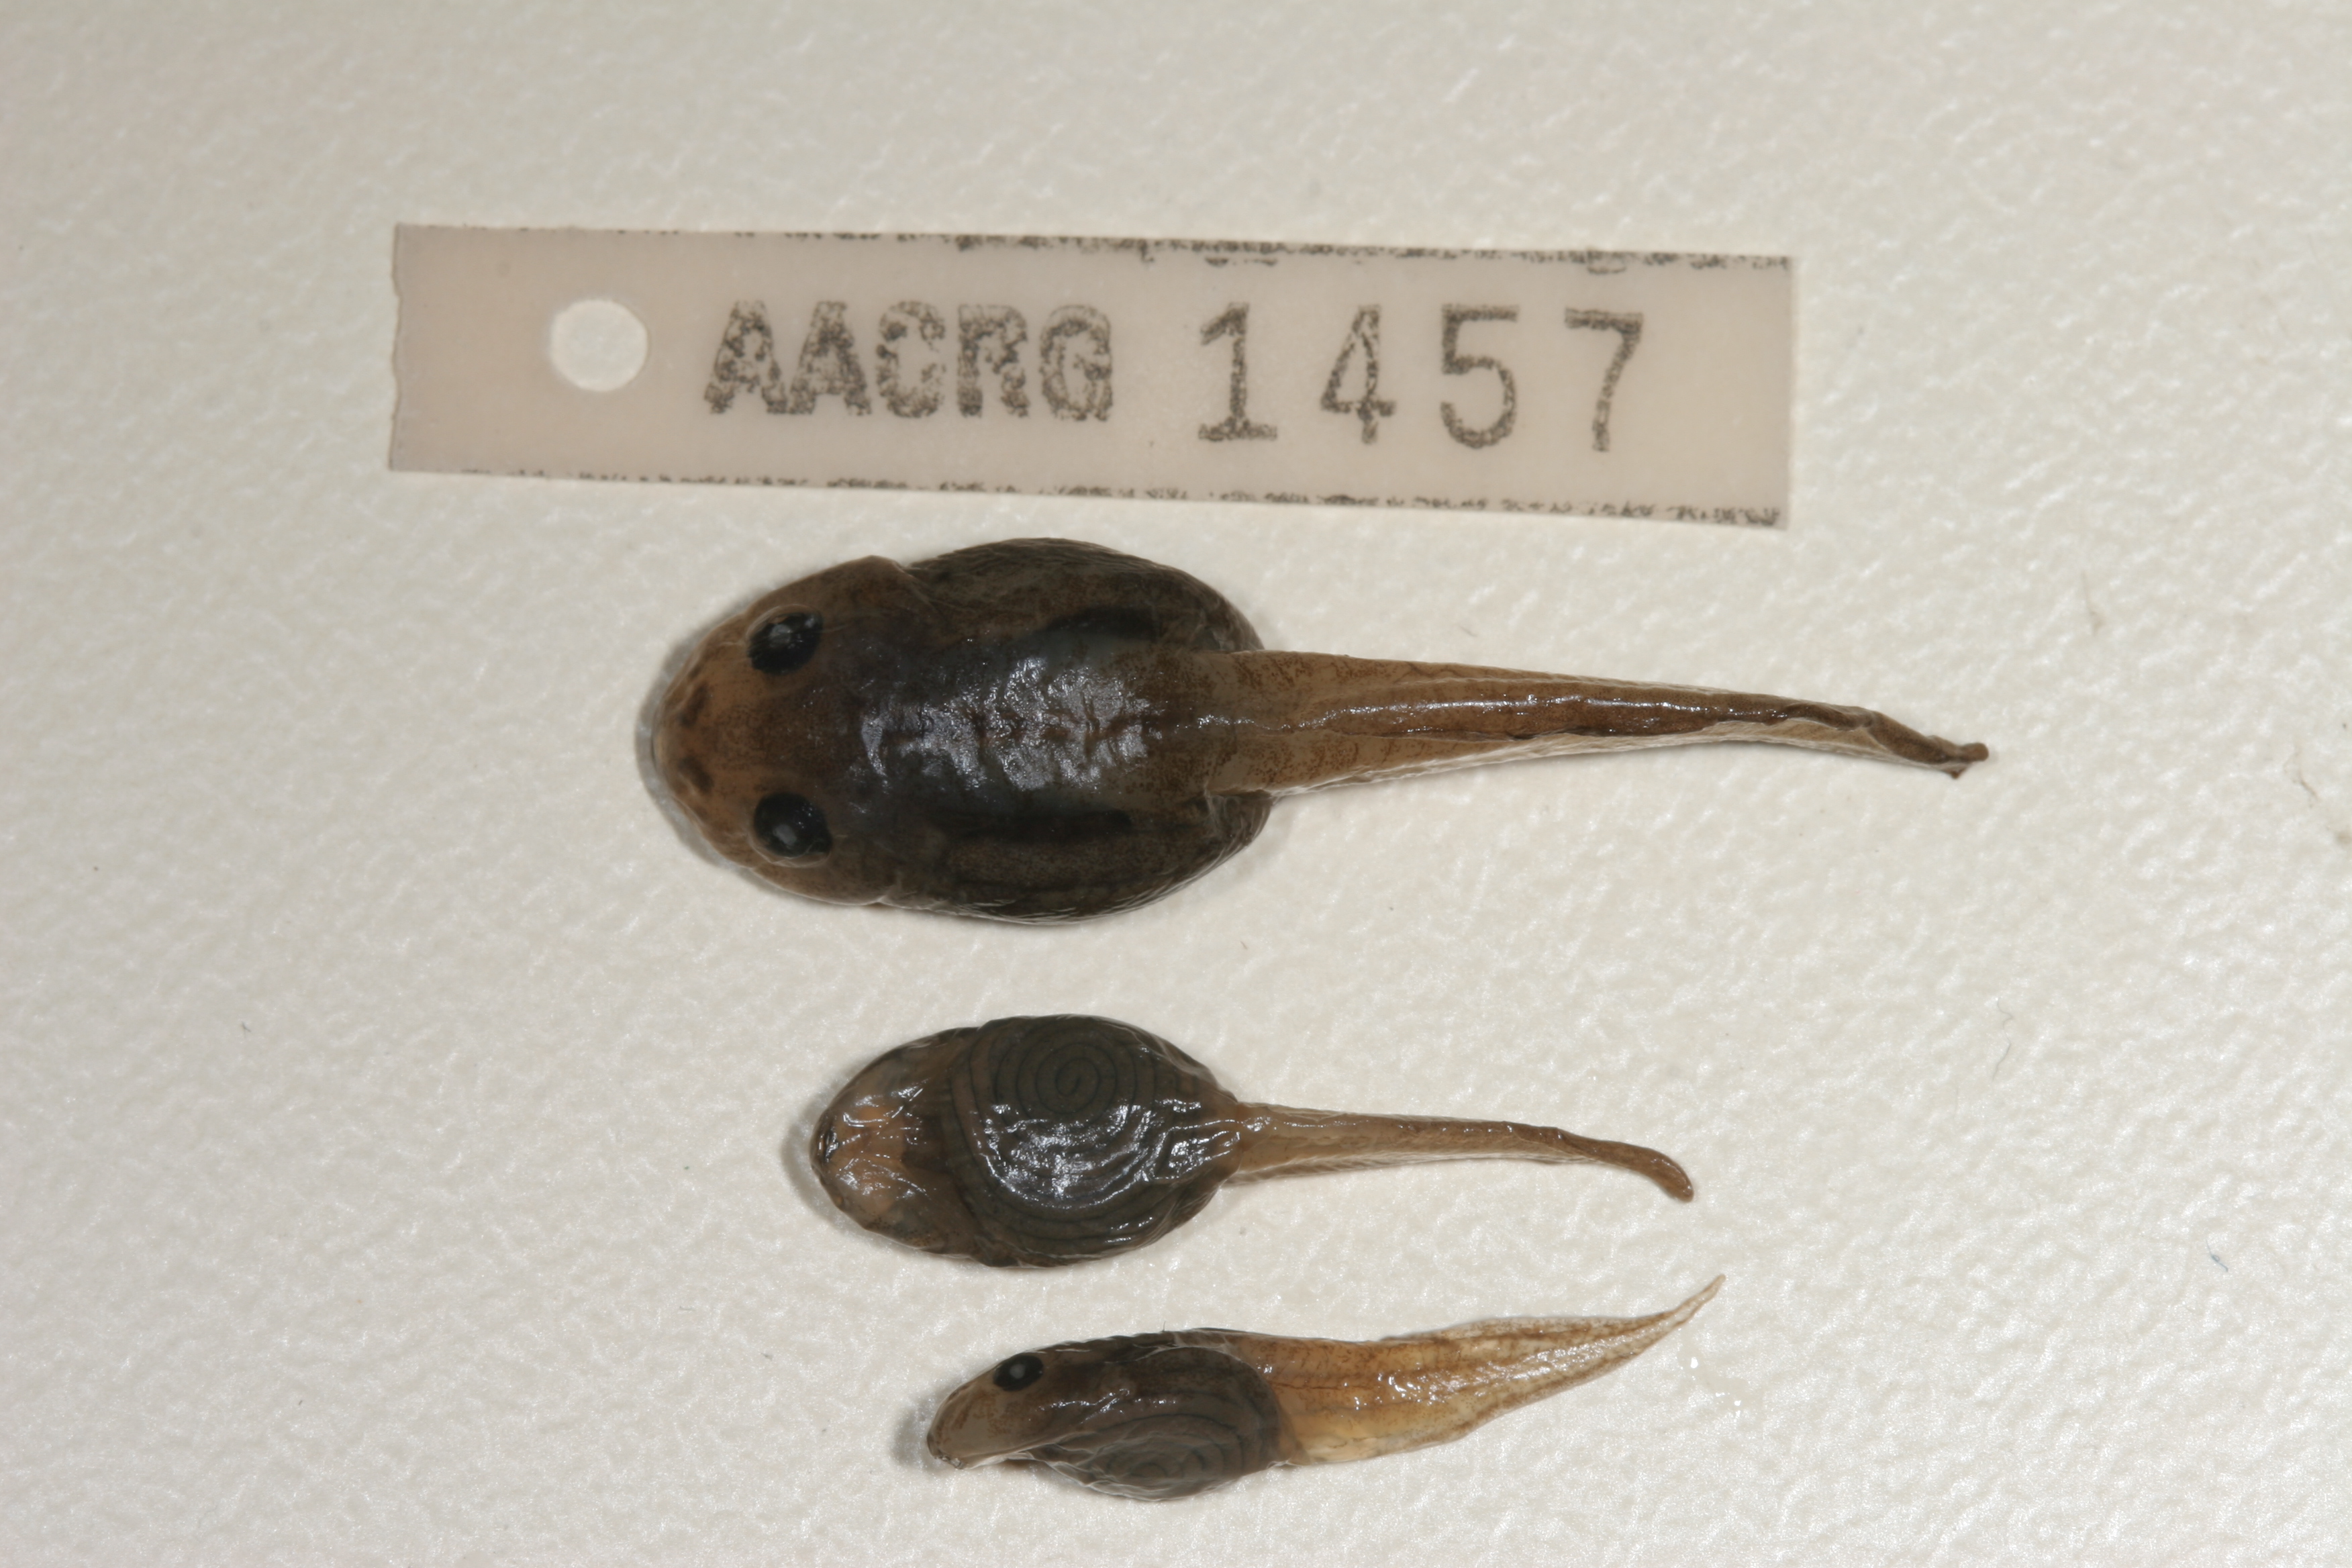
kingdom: Animalia
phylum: Chordata
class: Amphibia
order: Anura
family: Rhacophoridae
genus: Chiromantis
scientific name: Chiromantis xerampelina
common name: African gray treefrog
